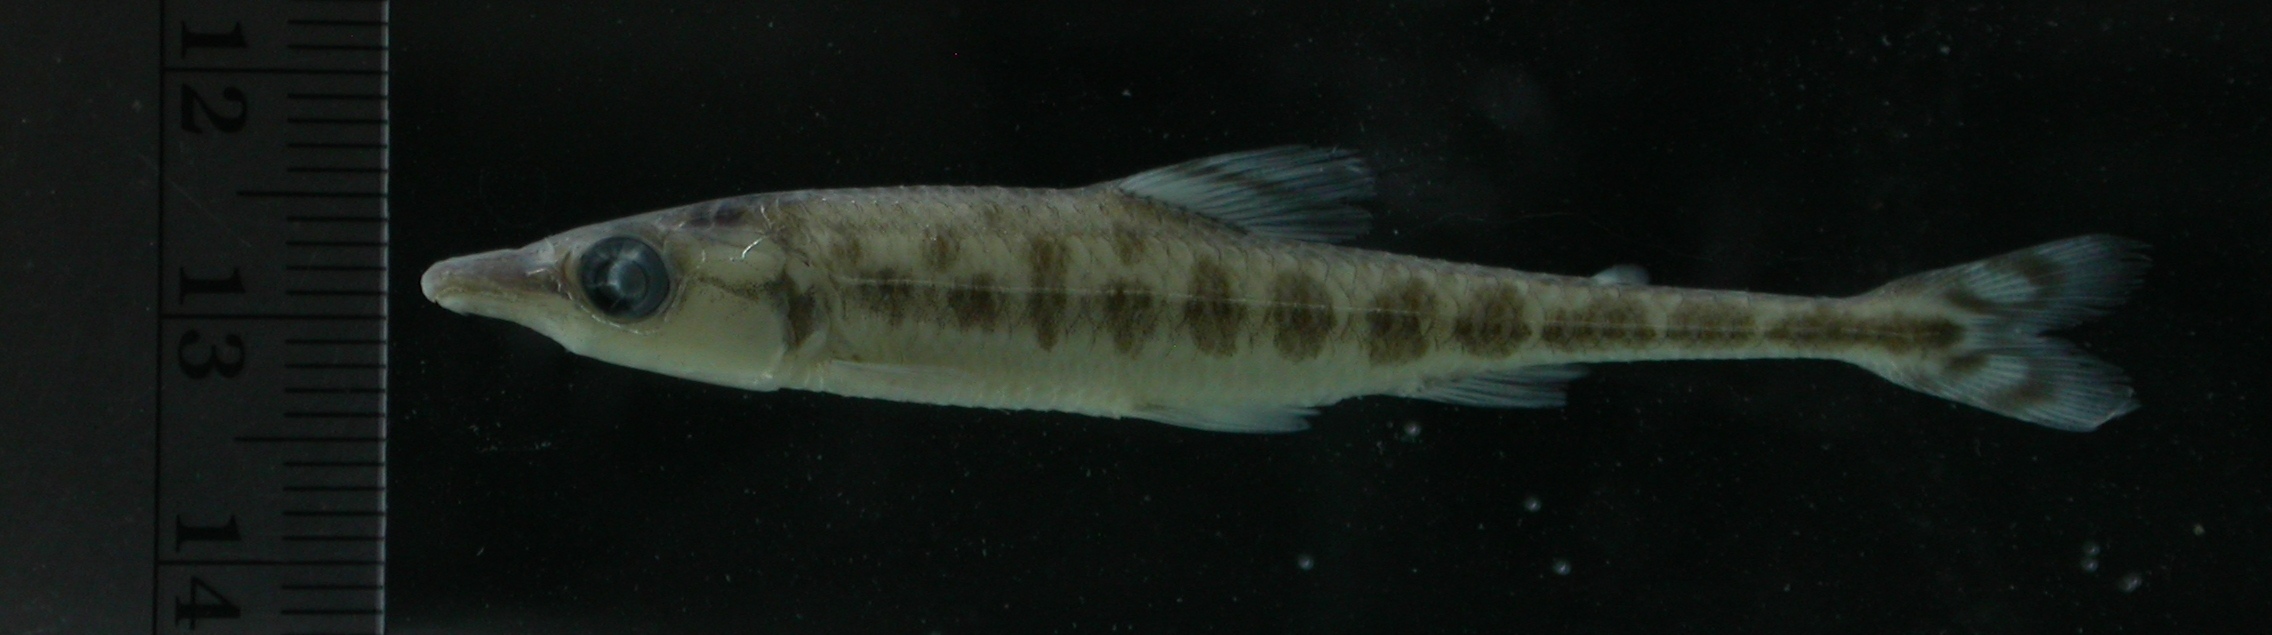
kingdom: Animalia
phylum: Chordata
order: Characiformes
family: Distichodontidae
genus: Phago
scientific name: Phago intermedius
